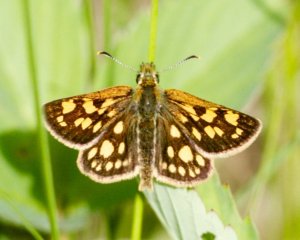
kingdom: Animalia
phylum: Arthropoda
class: Insecta
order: Lepidoptera
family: Hesperiidae
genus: Carterocephalus
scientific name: Carterocephalus palaemon
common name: Chequered Skipper
